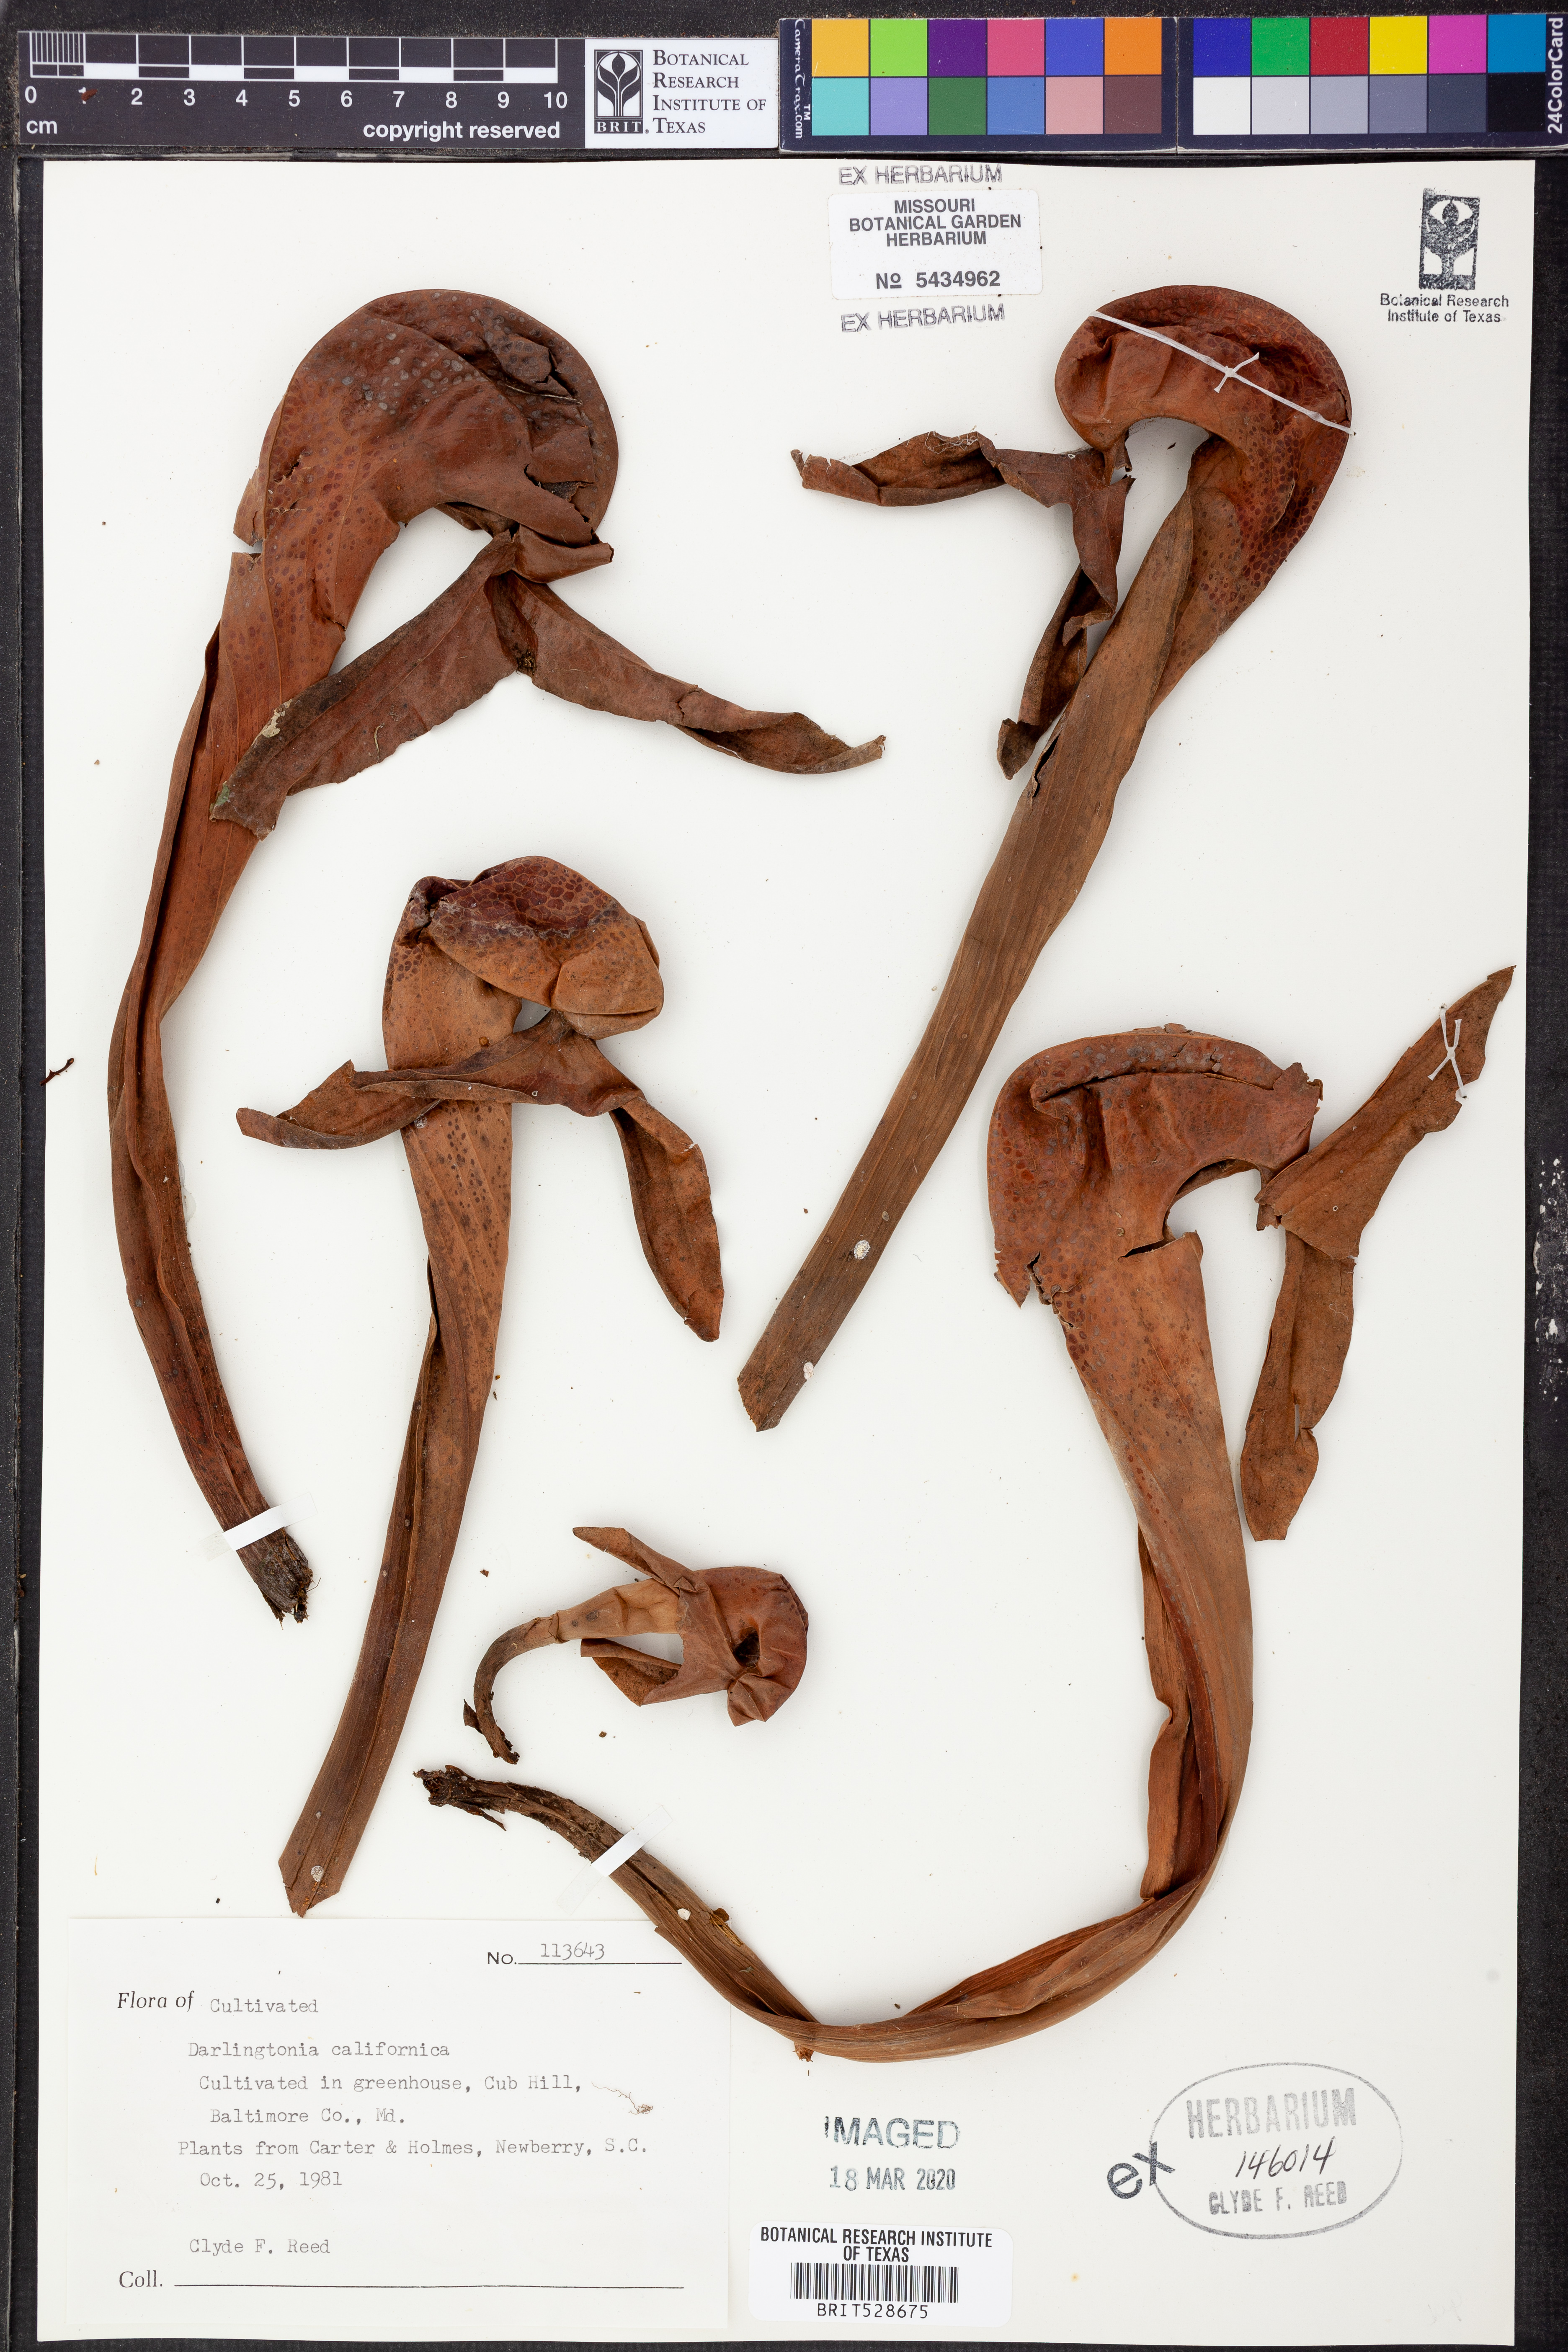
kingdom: Plantae
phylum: Tracheophyta
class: Magnoliopsida
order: Ericales
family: Sarraceniaceae
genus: Darlingtonia
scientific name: Darlingtonia californica
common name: California pitcher plant
